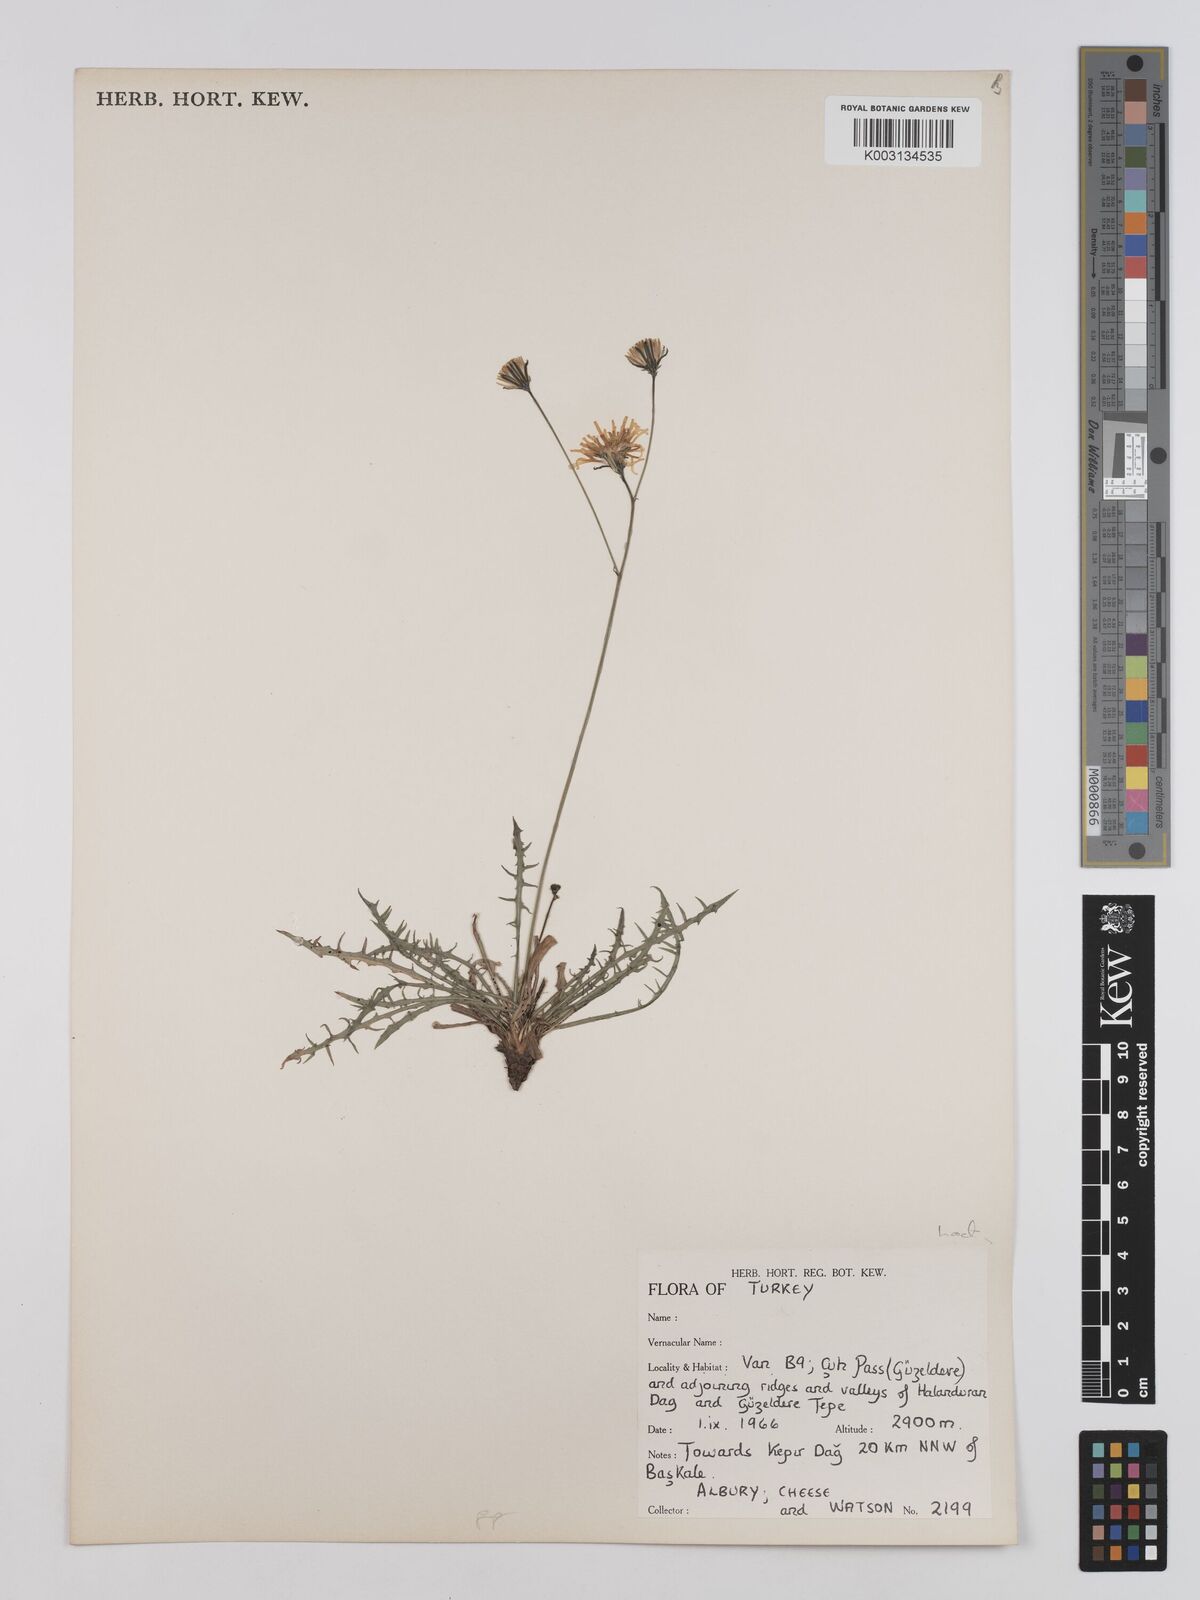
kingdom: Plantae
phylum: Tracheophyta
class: Magnoliopsida
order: Asterales
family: Asteraceae
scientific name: Asteraceae
